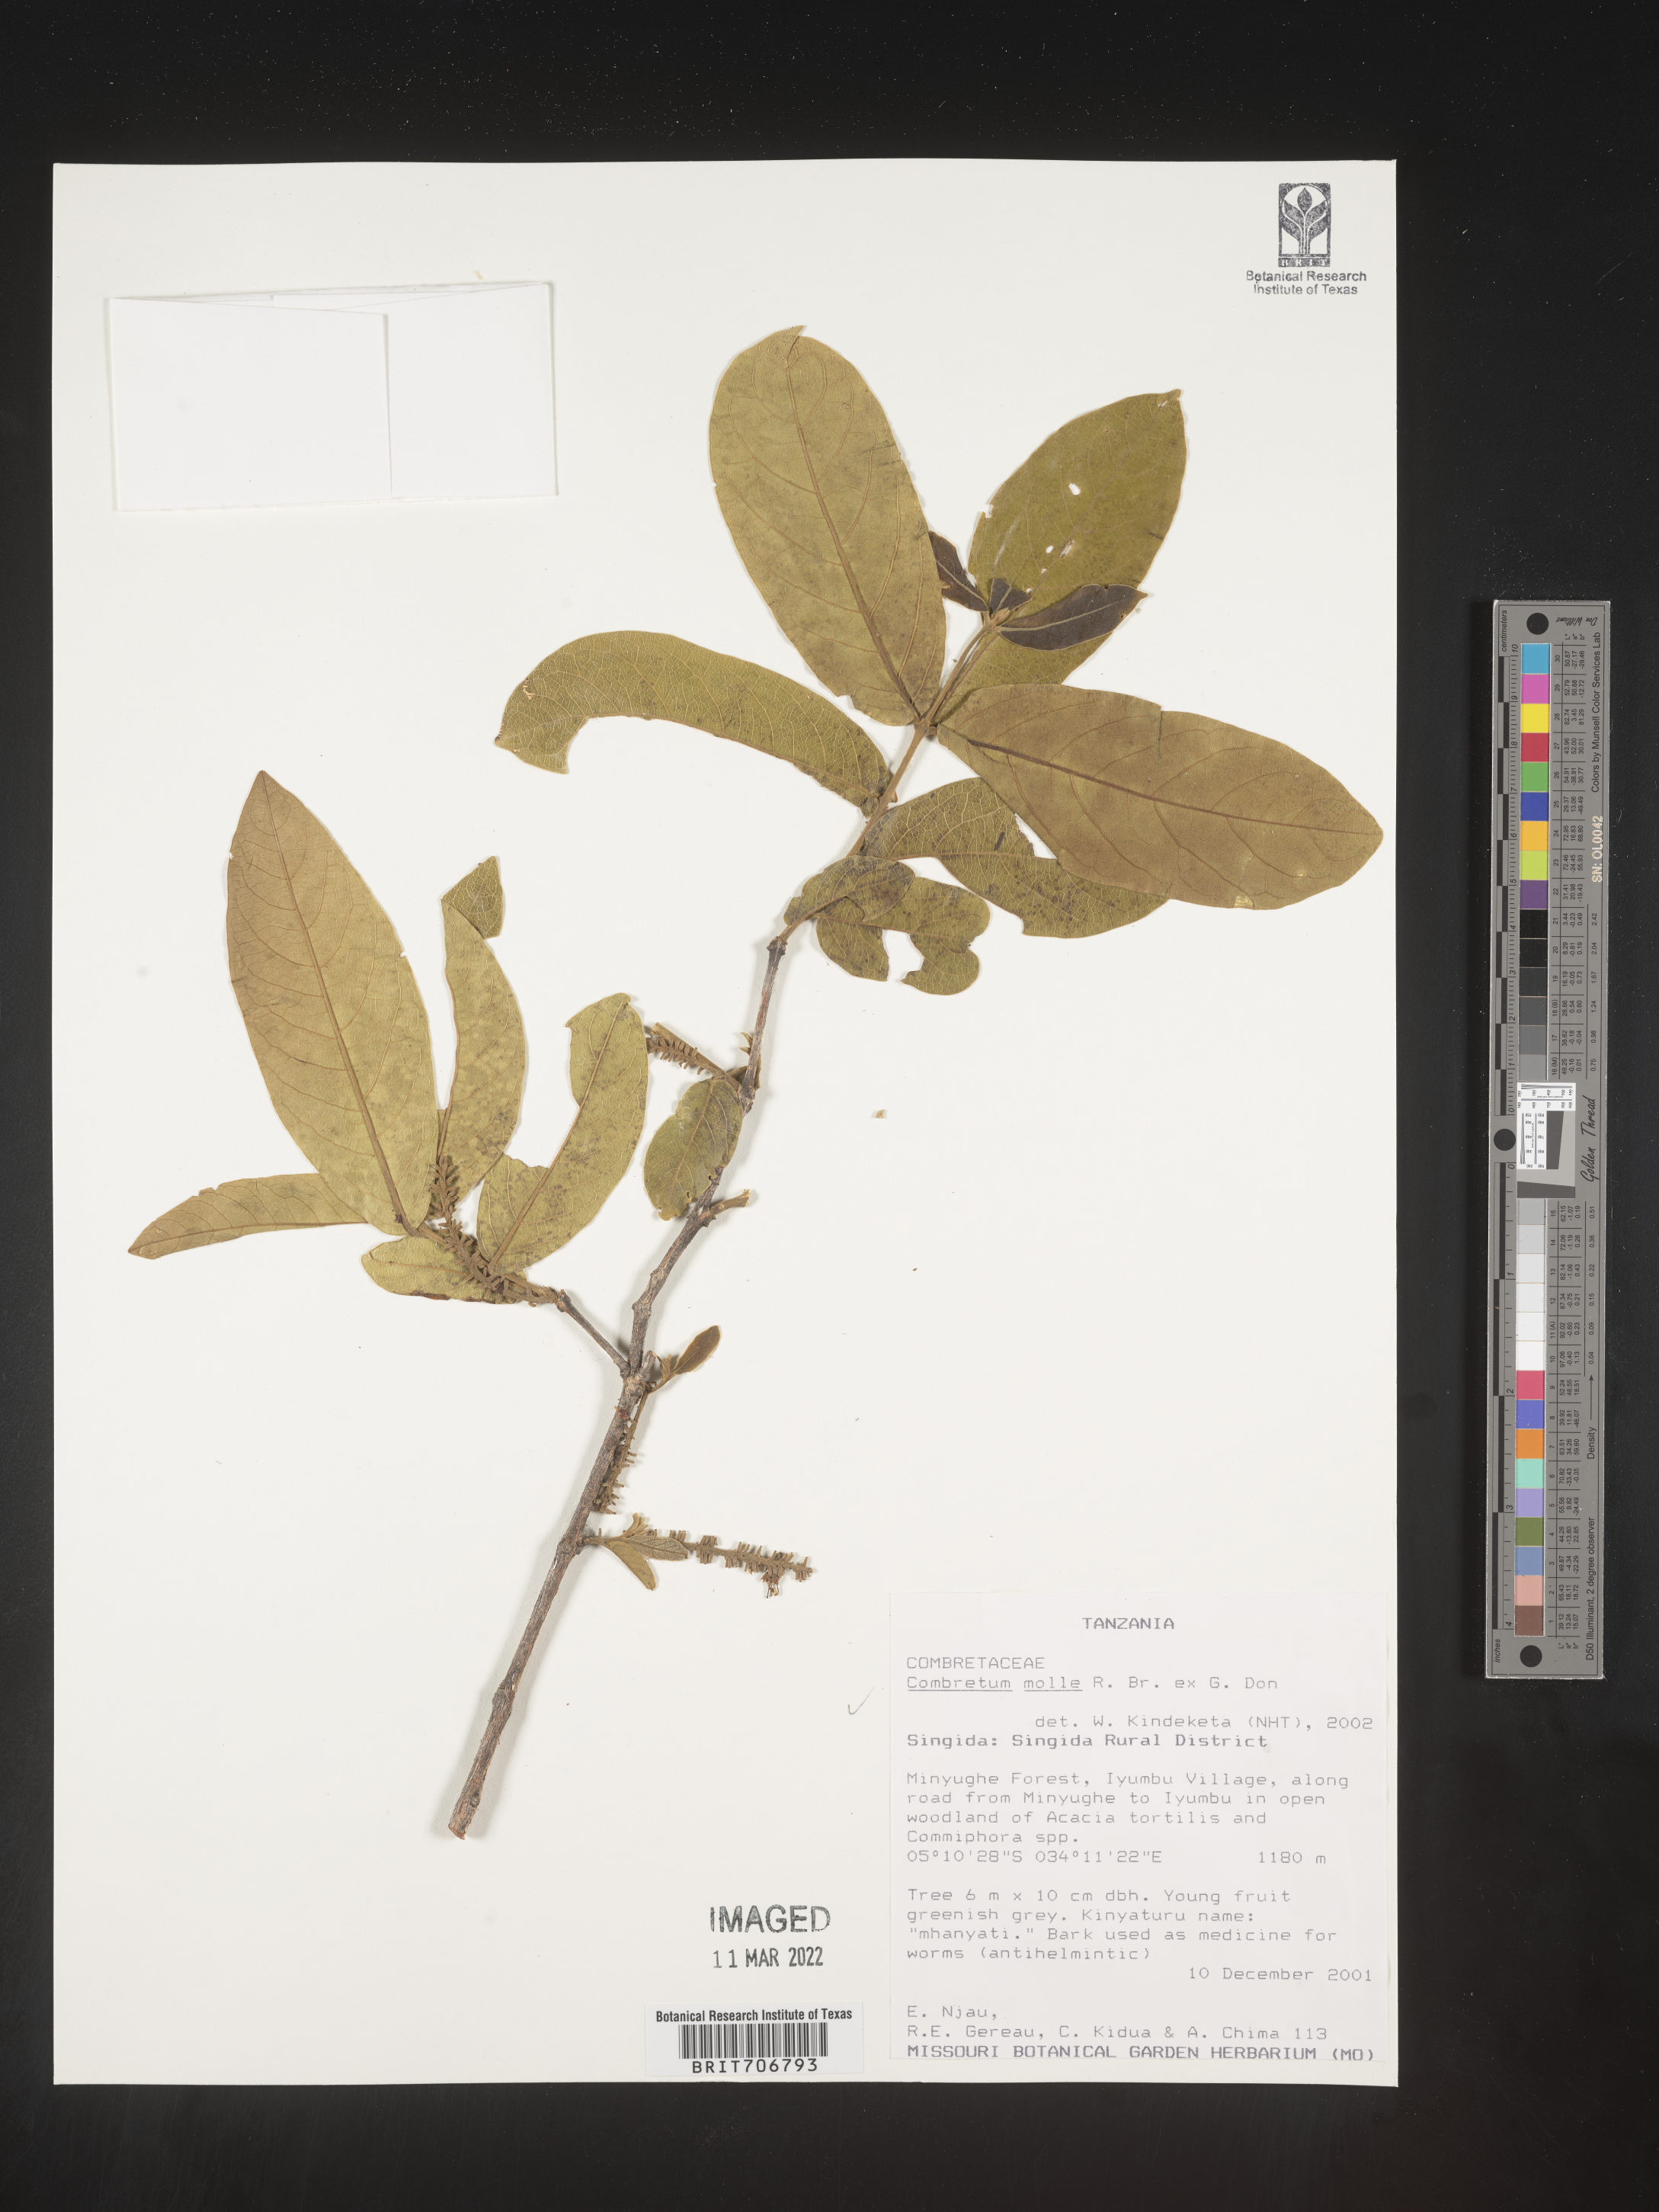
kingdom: Plantae
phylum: Tracheophyta
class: Magnoliopsida
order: Myrtales
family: Combretaceae
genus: Combretum
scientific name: Combretum
